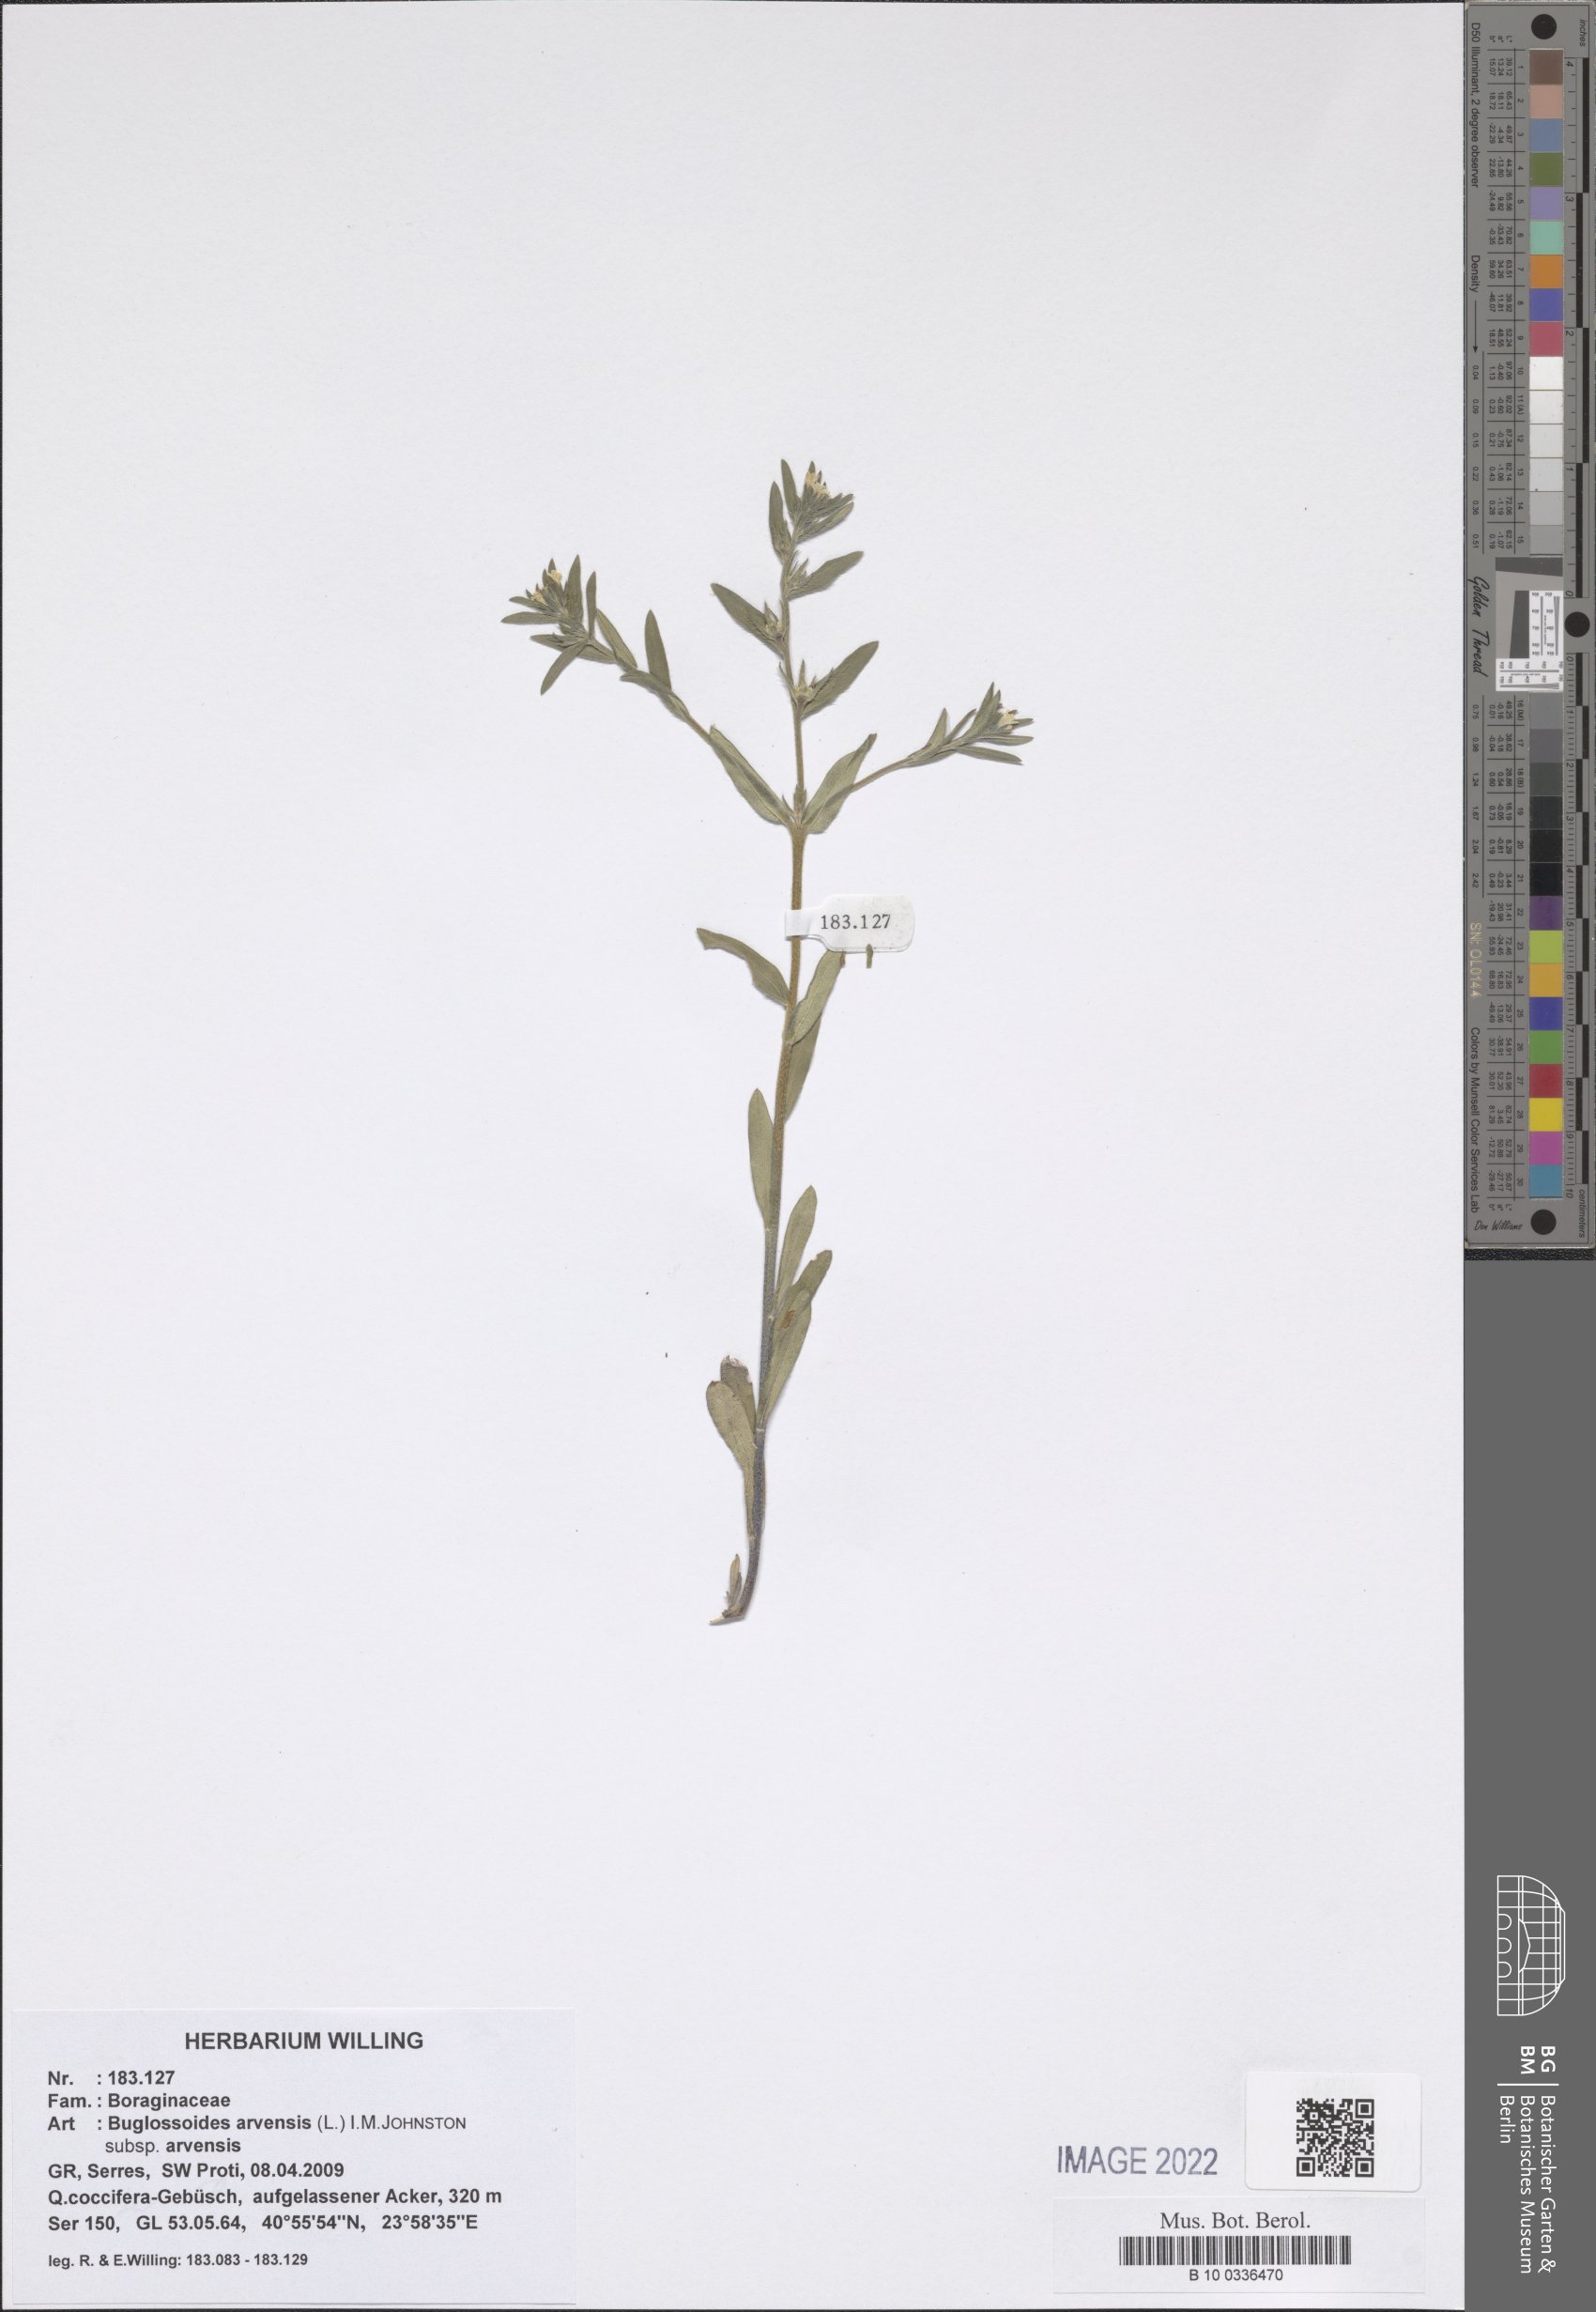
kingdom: Plantae
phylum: Tracheophyta
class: Magnoliopsida
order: Boraginales
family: Boraginaceae
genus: Buglossoides
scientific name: Buglossoides arvensis
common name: Corn gromwell
